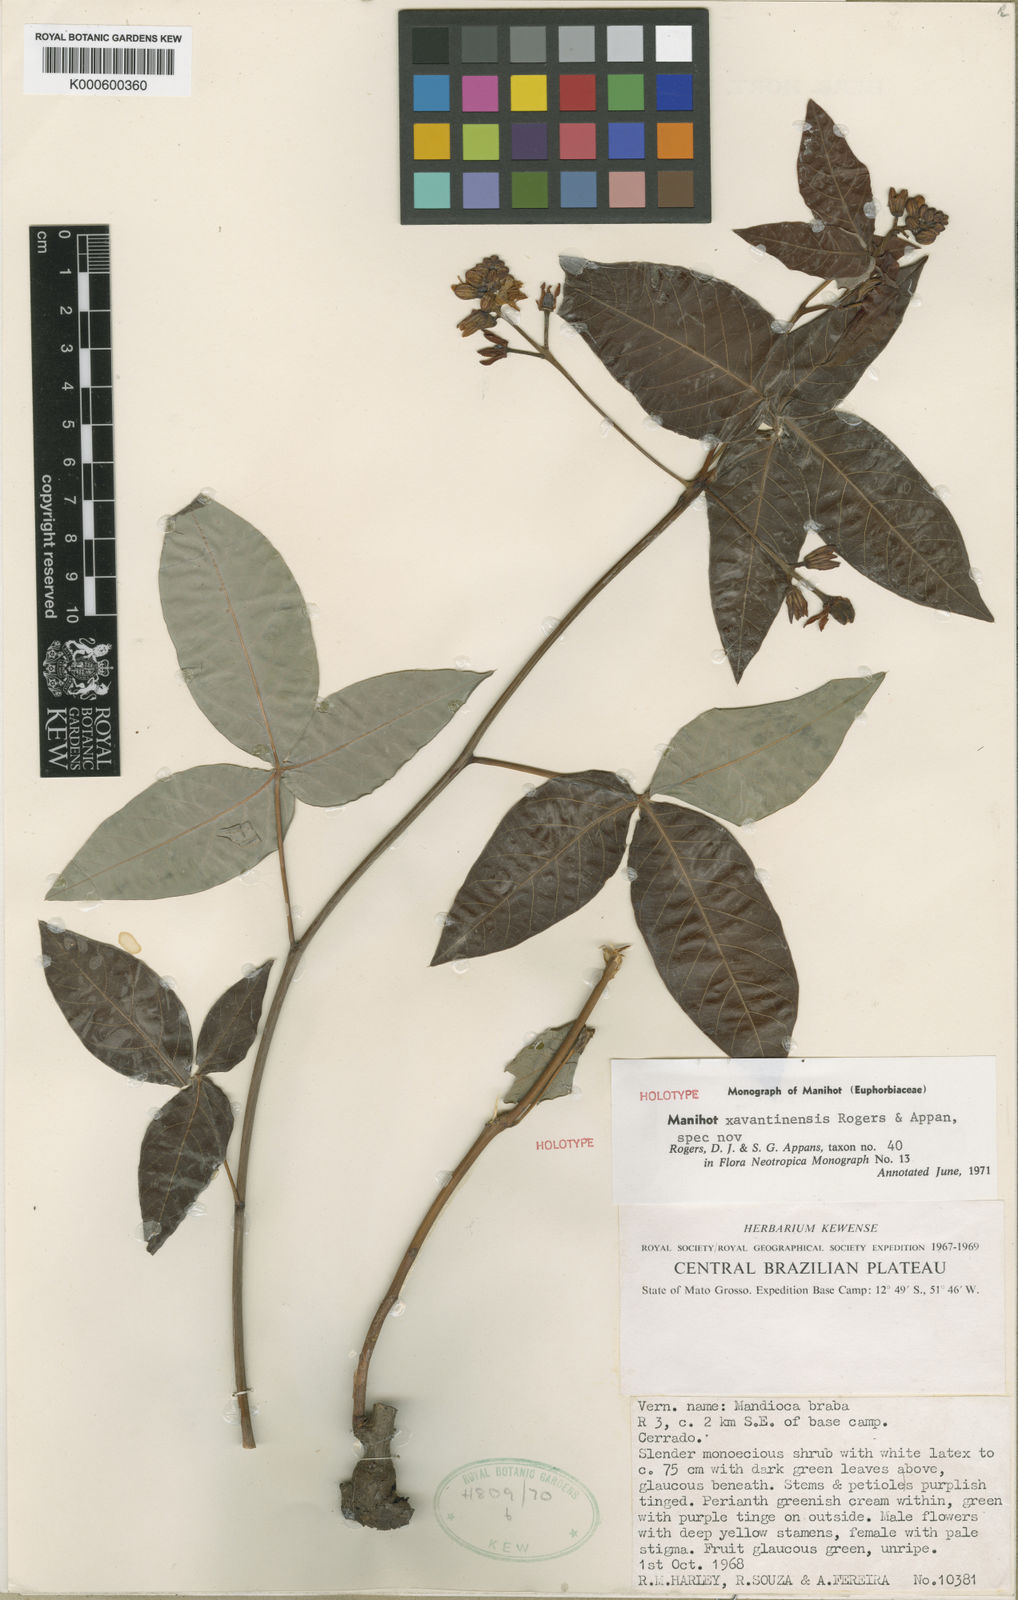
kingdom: Plantae
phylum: Tracheophyta
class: Magnoliopsida
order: Malpighiales
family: Euphorbiaceae
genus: Manihot
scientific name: Manihot xavantinensis
